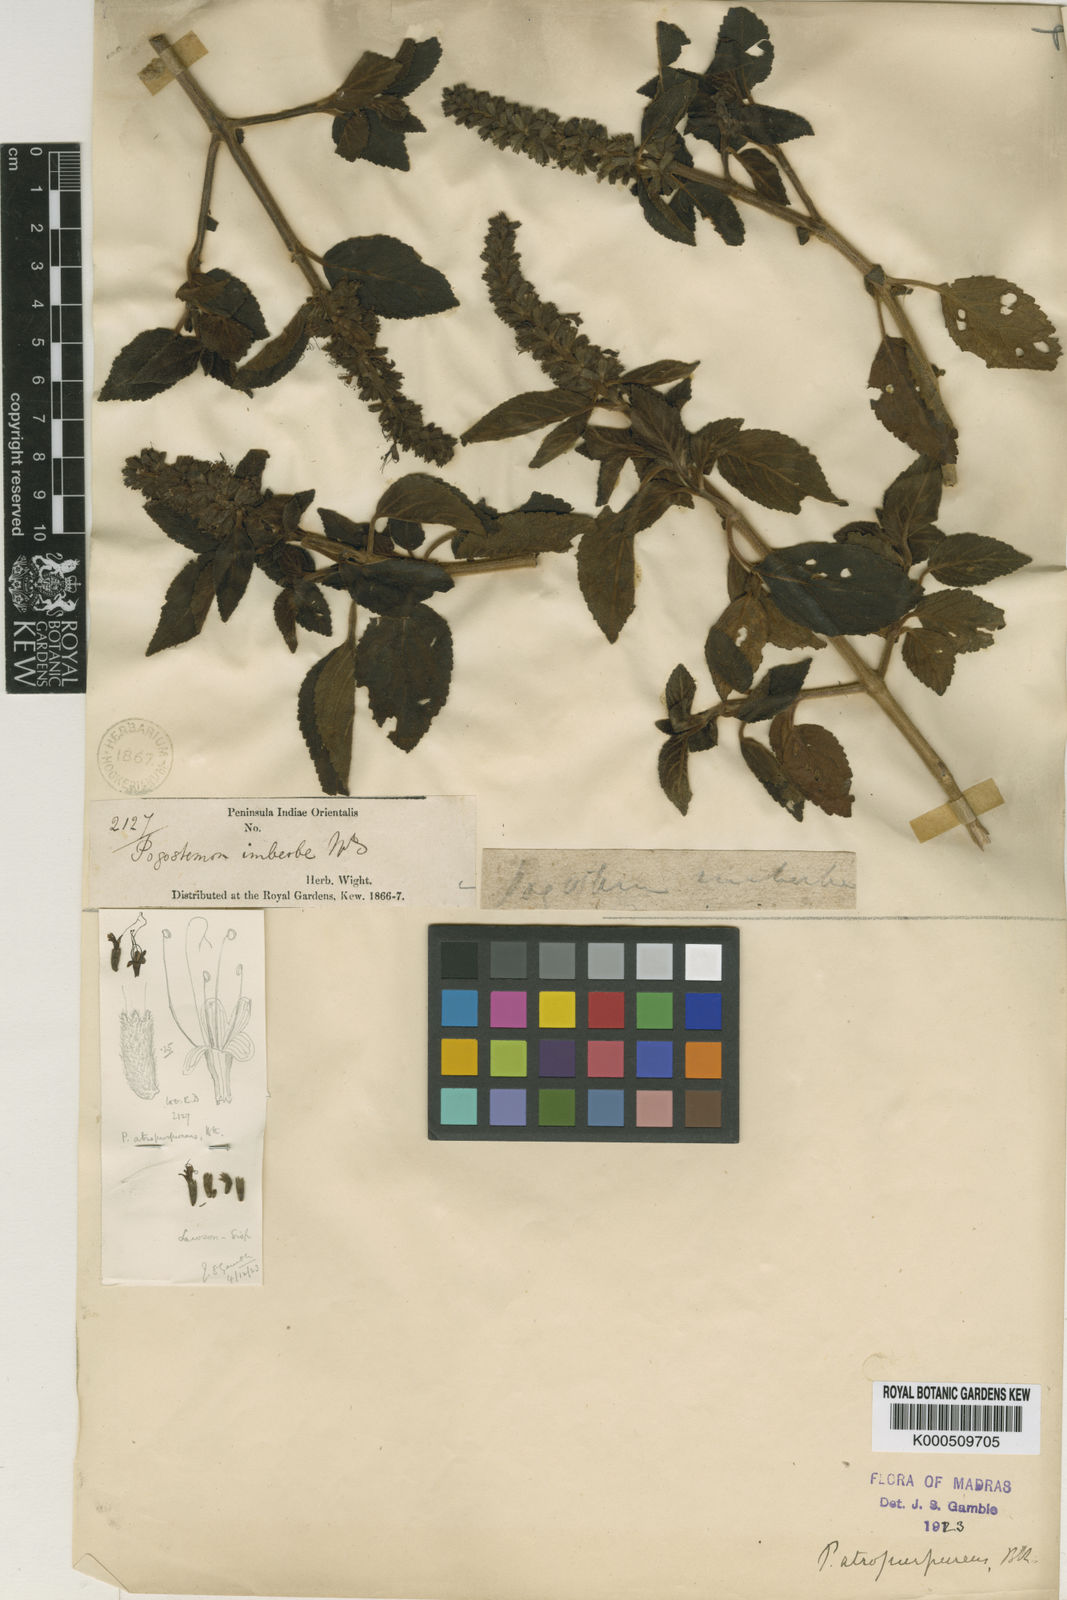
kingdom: Plantae
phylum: Tracheophyta
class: Magnoliopsida
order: Lamiales
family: Lamiaceae
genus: Pogostemon
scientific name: Pogostemon atropurpureus
